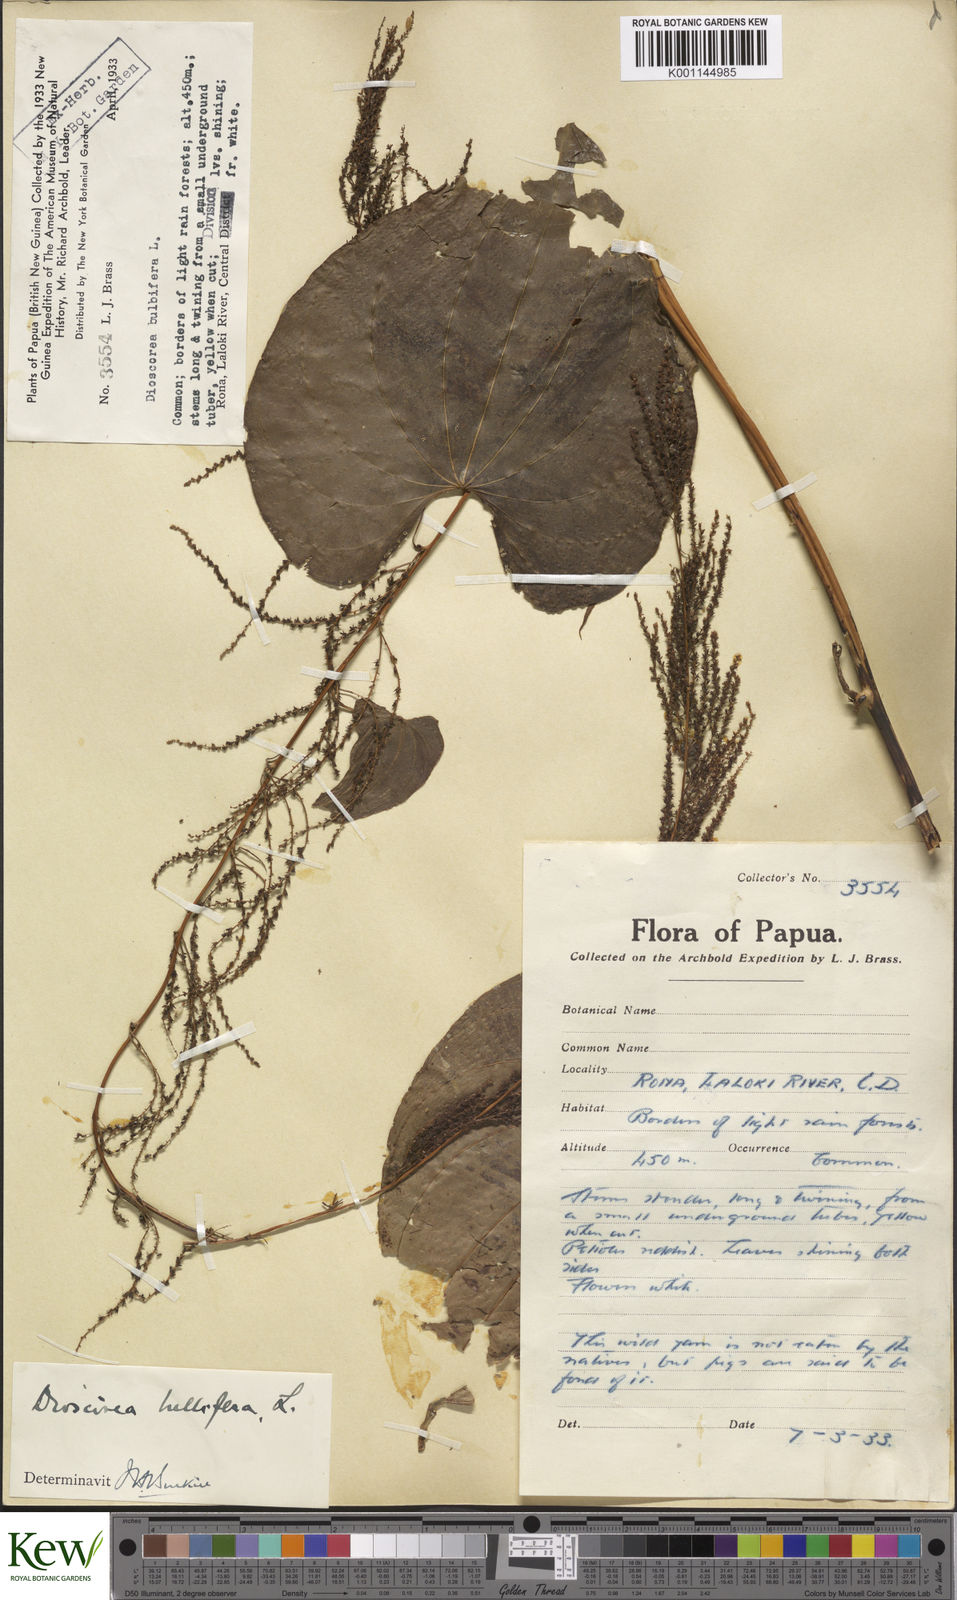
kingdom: Plantae
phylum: Tracheophyta
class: Liliopsida
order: Dioscoreales
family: Dioscoreaceae
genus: Dioscorea
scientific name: Dioscorea bulbifera
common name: Air yam
